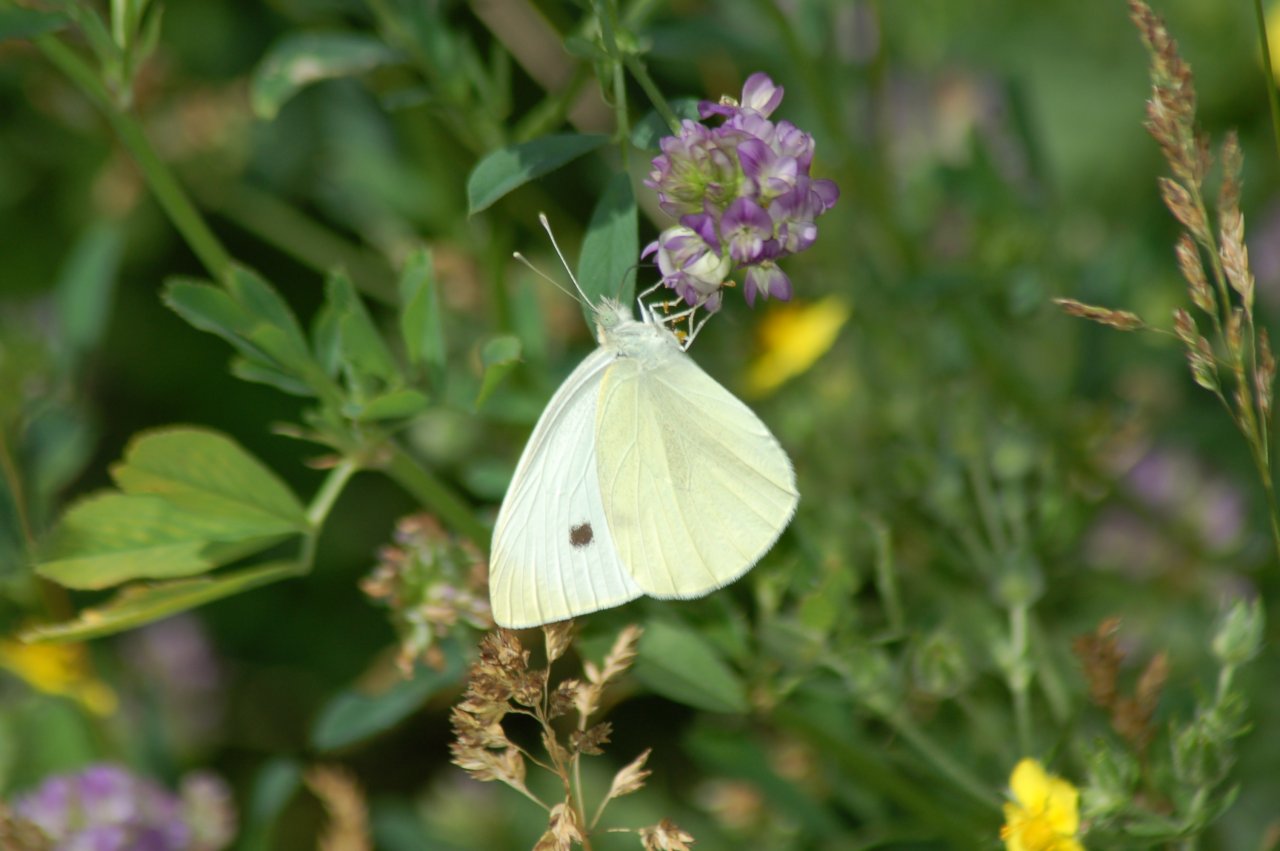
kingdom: Animalia
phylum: Arthropoda
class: Insecta
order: Lepidoptera
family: Pieridae
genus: Pieris
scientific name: Pieris rapae
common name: Cabbage White
